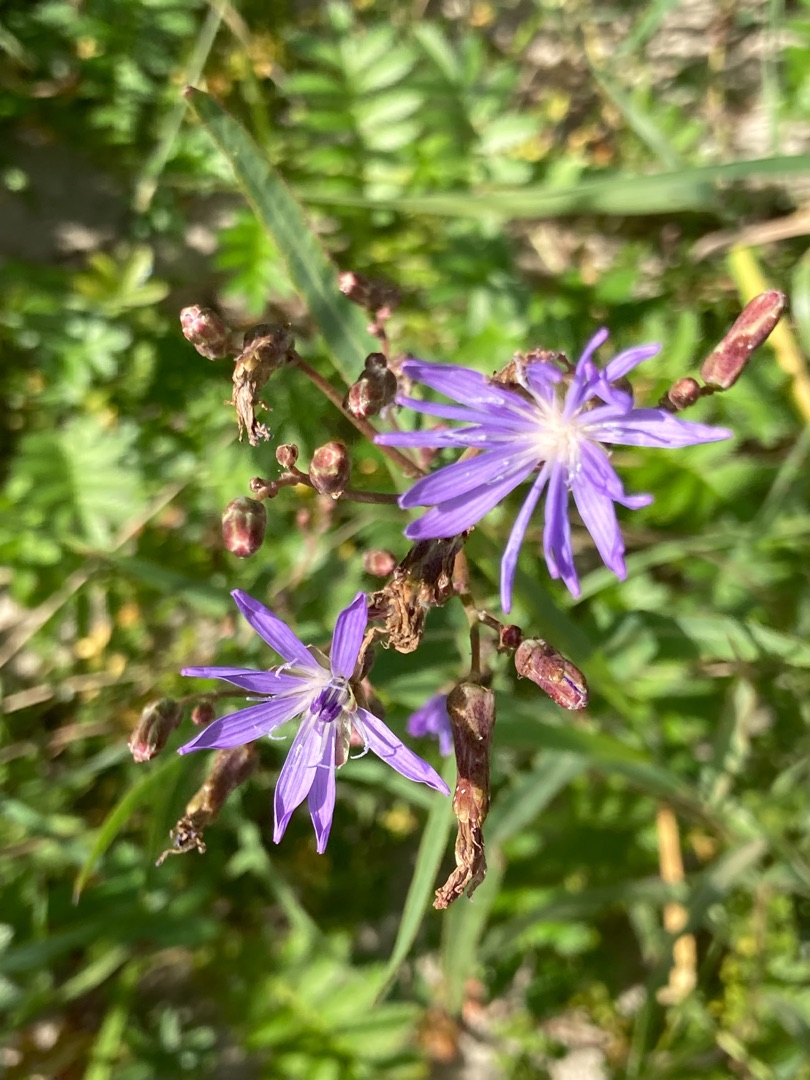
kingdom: Plantae
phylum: Tracheophyta
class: Magnoliopsida
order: Asterales
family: Asteraceae
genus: Lactuca
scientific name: Lactuca tatarica
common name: Strand-salat
